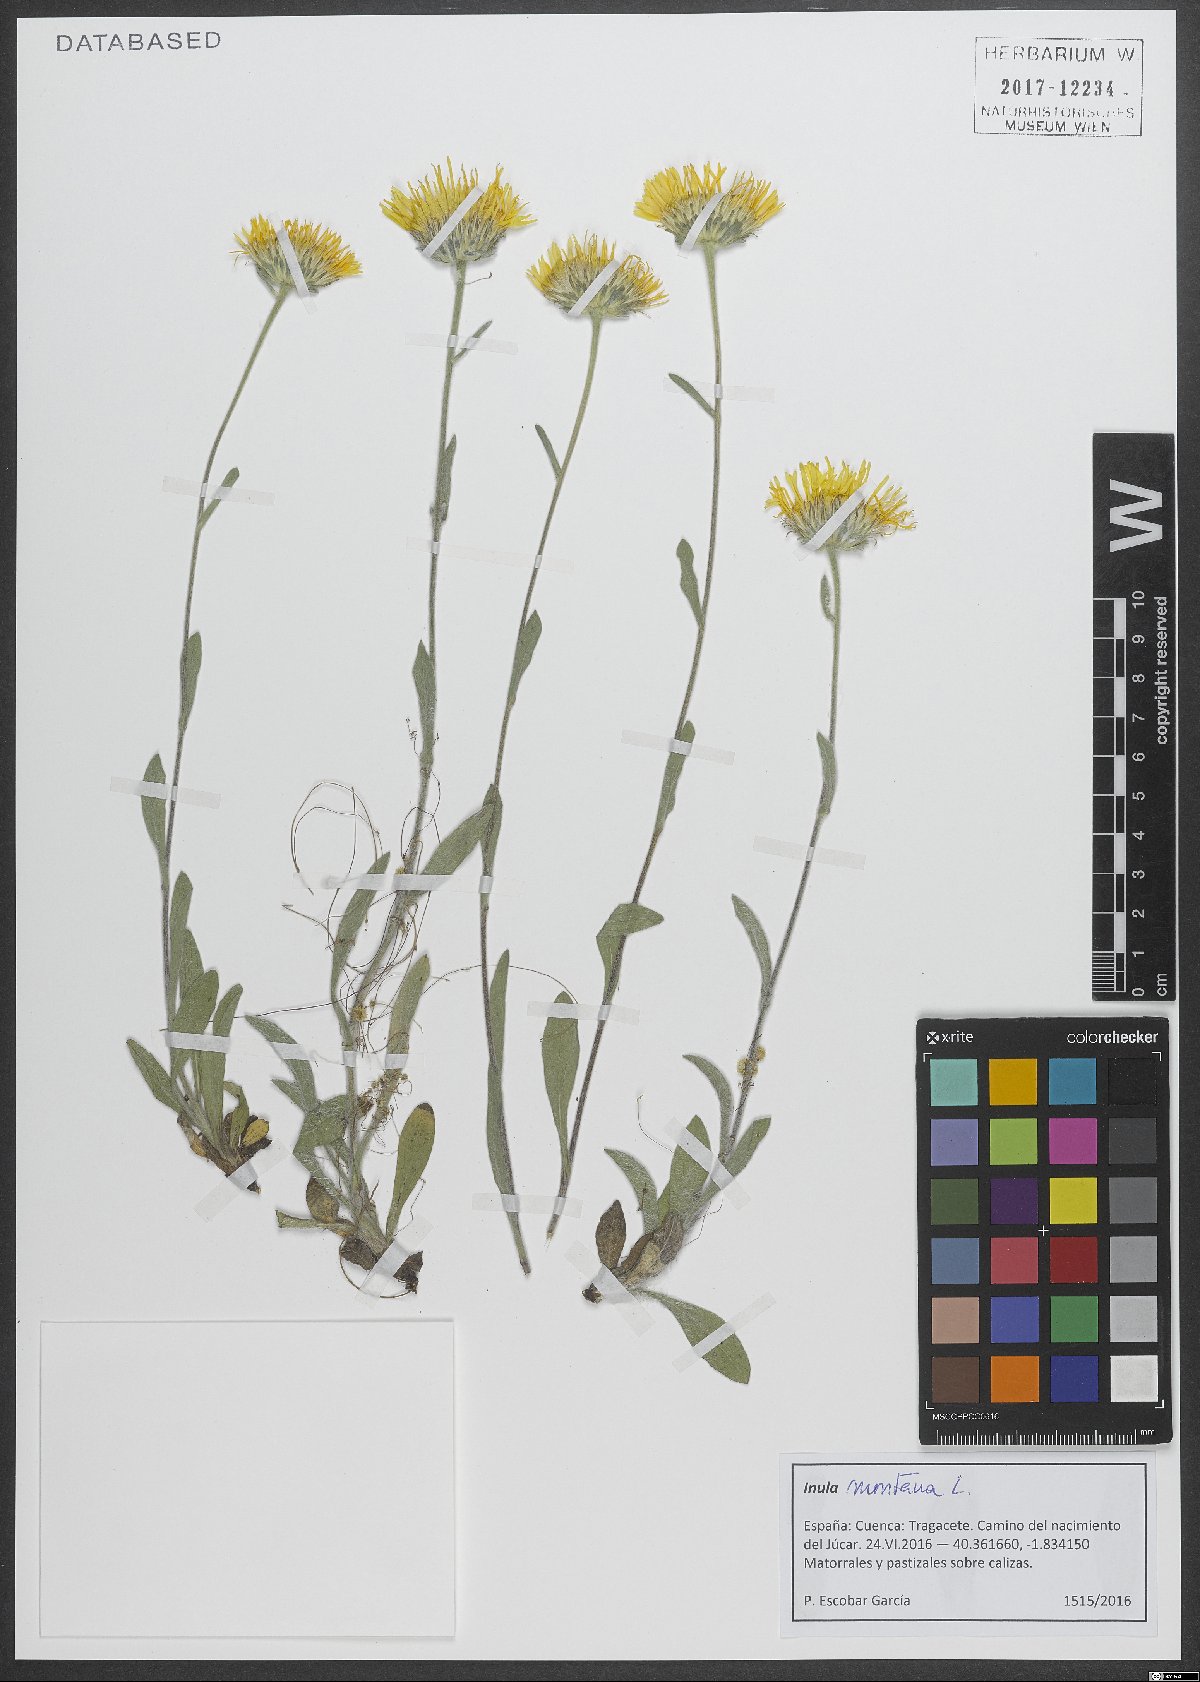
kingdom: Plantae
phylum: Tracheophyta
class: Magnoliopsida
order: Asterales
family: Asteraceae
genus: Pentanema
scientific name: Pentanema montanum
